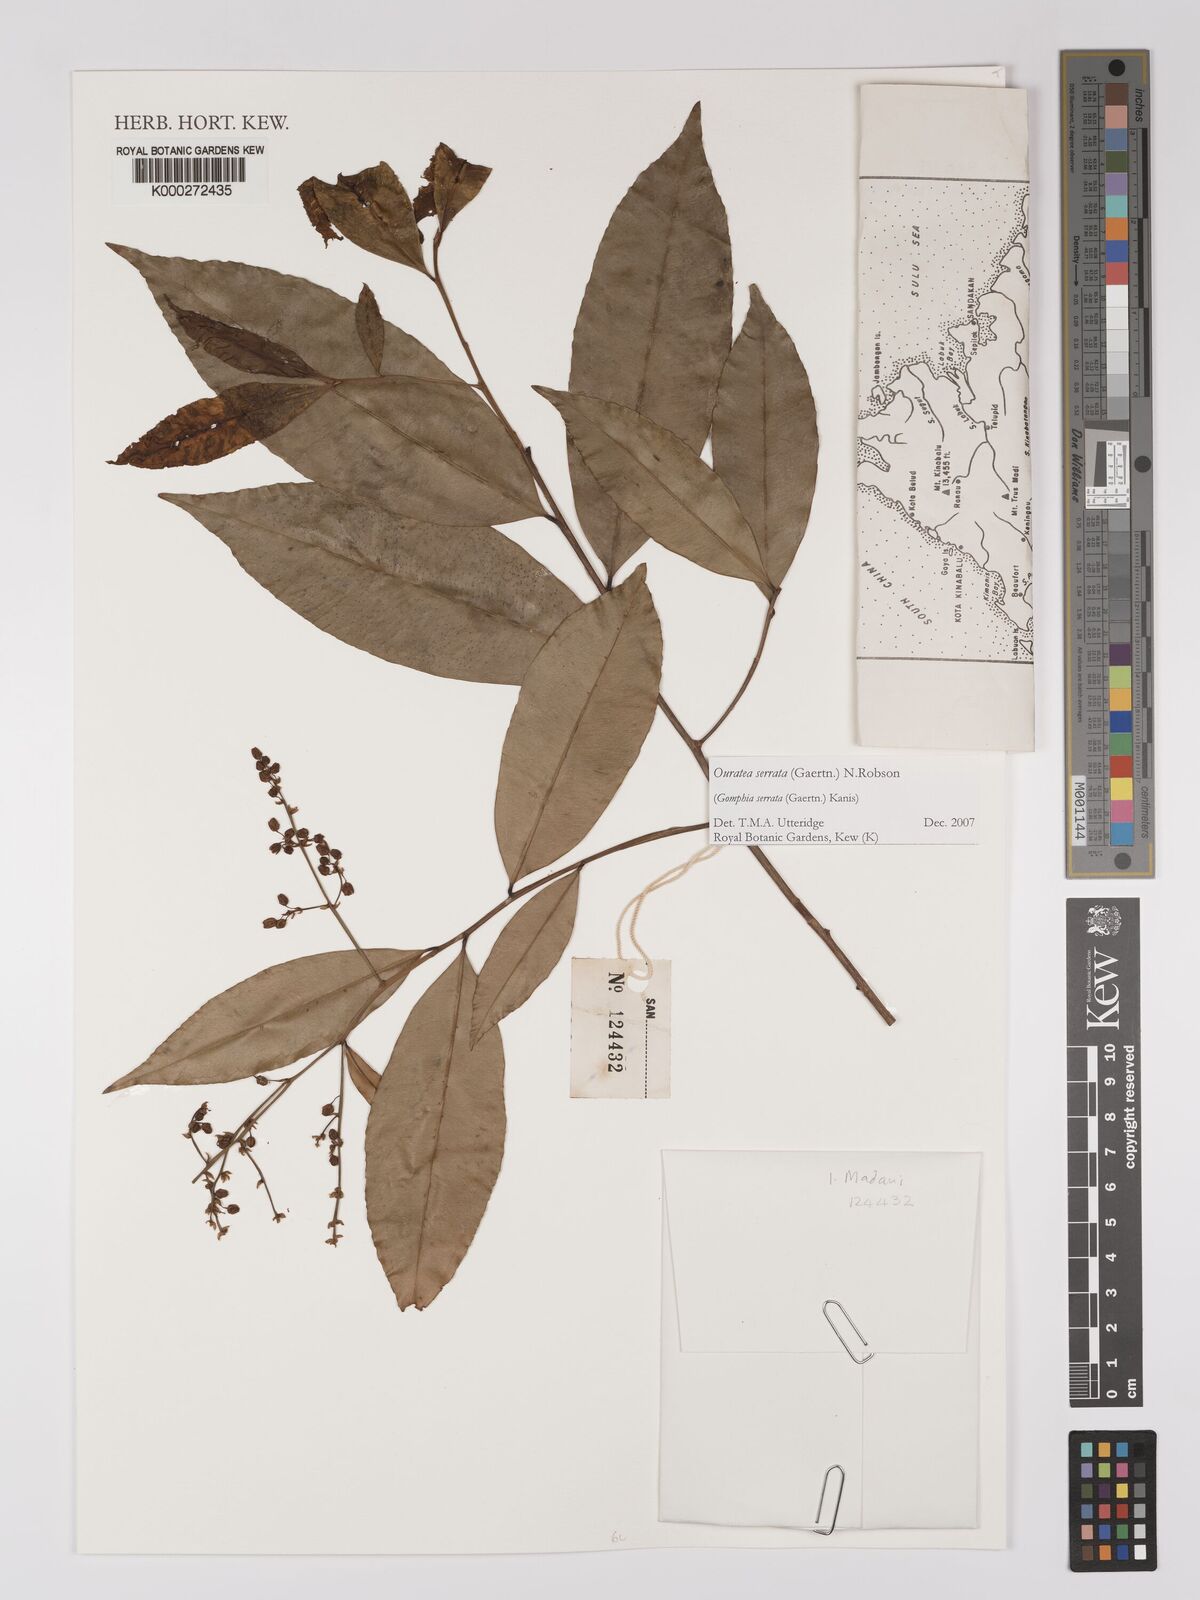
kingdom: Plantae
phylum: Tracheophyta
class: Magnoliopsida
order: Malpighiales
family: Ochnaceae
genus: Gomphia
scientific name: Gomphia serrata
